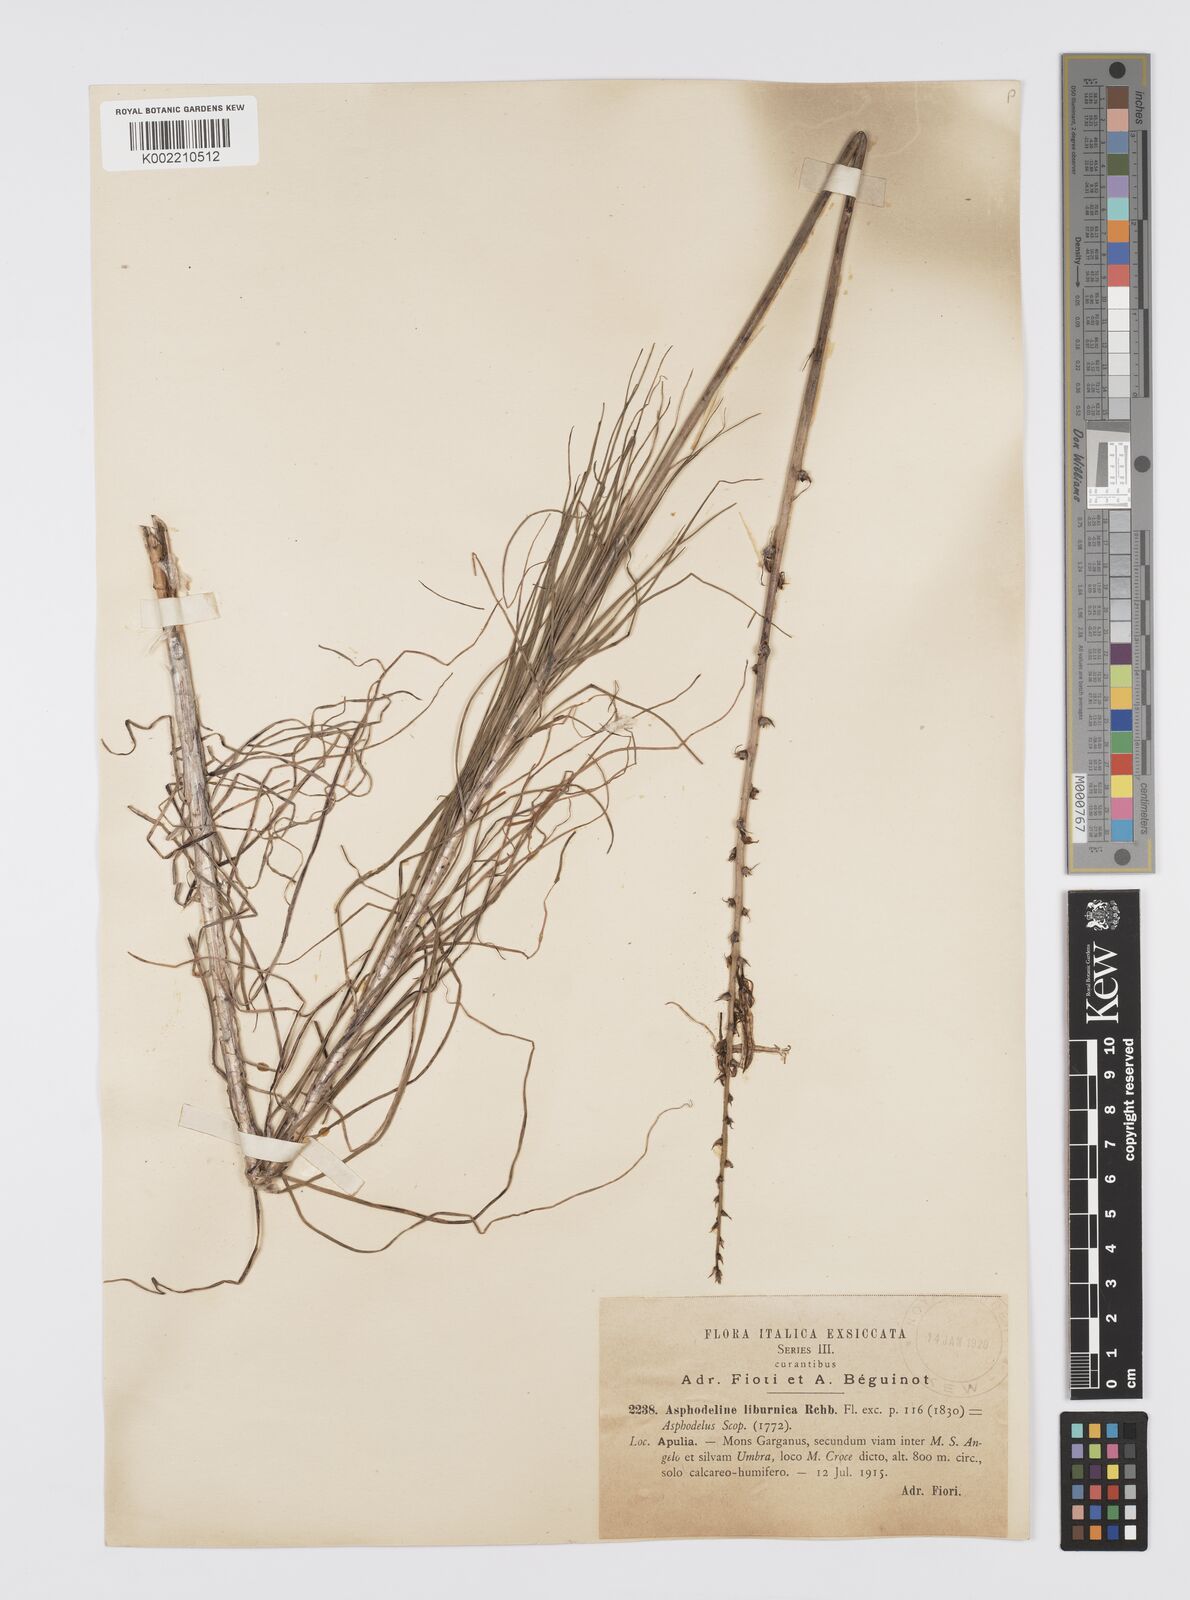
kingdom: Plantae
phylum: Tracheophyta
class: Liliopsida
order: Asparagales
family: Asphodelaceae
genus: Asphodeline
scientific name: Asphodeline liburnica
